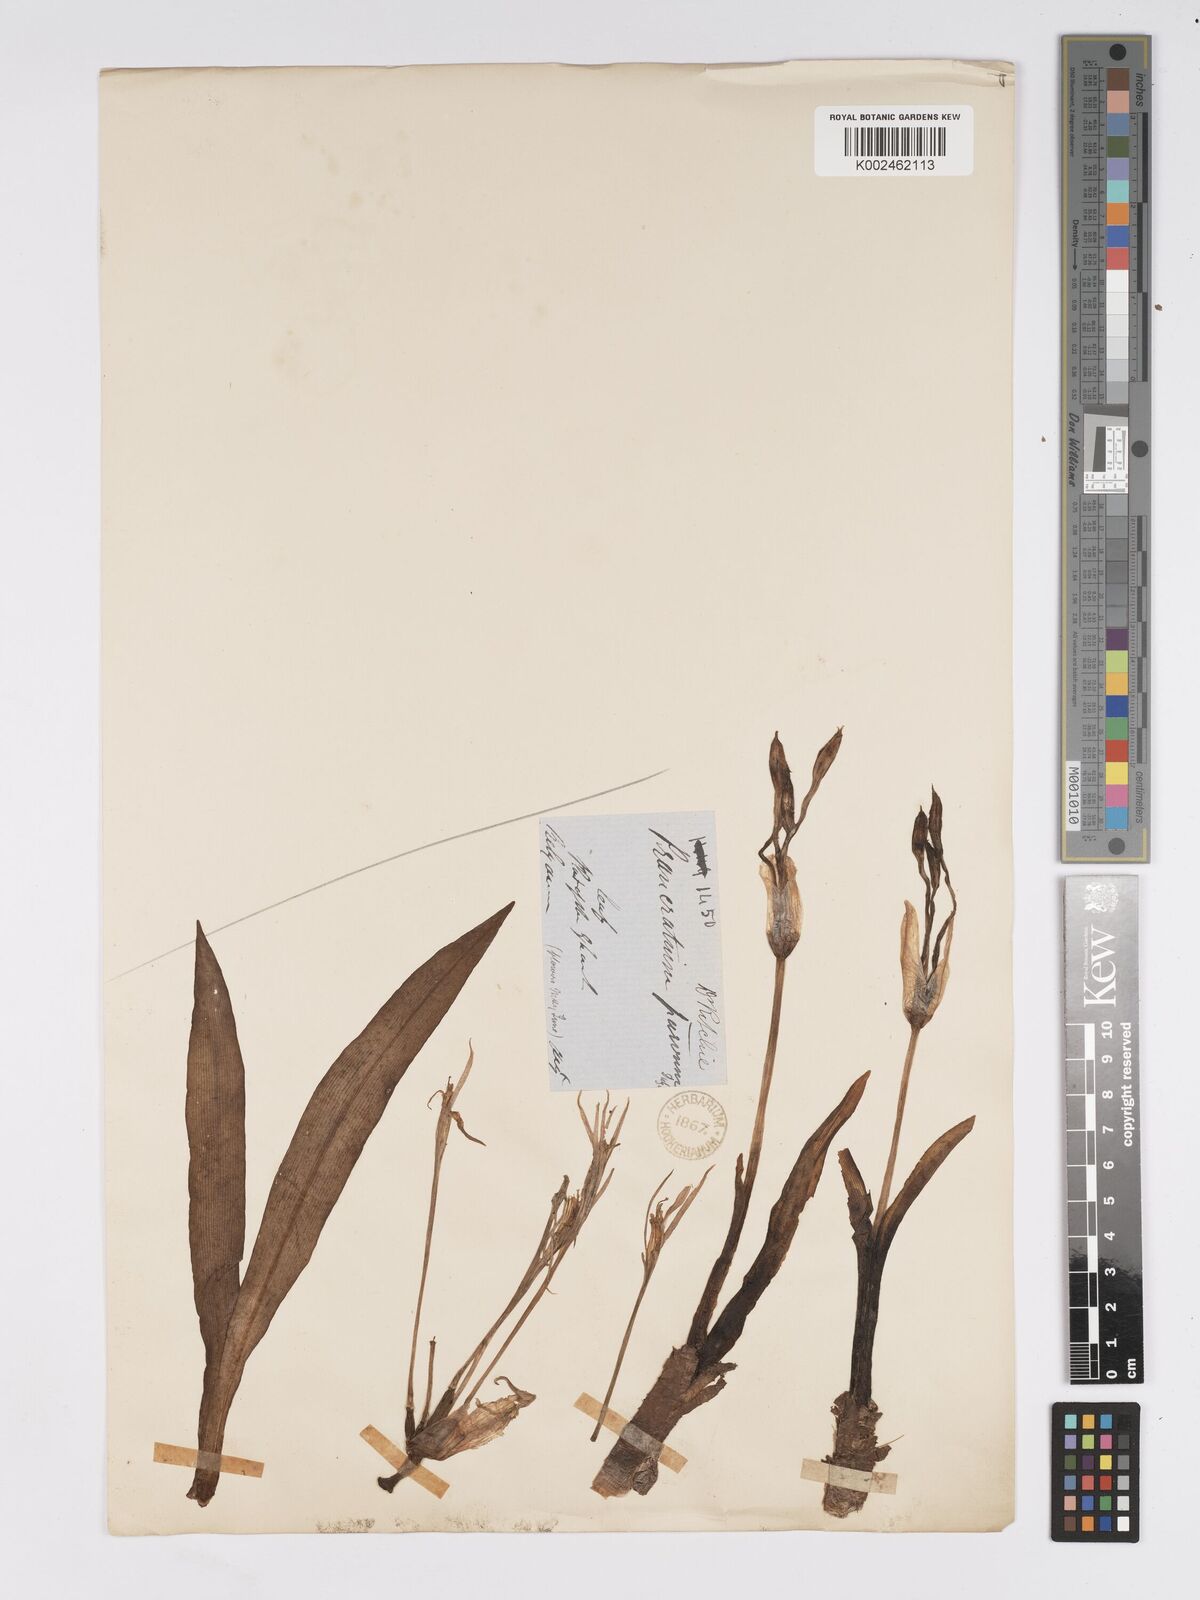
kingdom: Plantae
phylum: Tracheophyta
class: Liliopsida
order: Asparagales
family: Amaryllidaceae
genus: Pancratium
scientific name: Pancratium parvum
